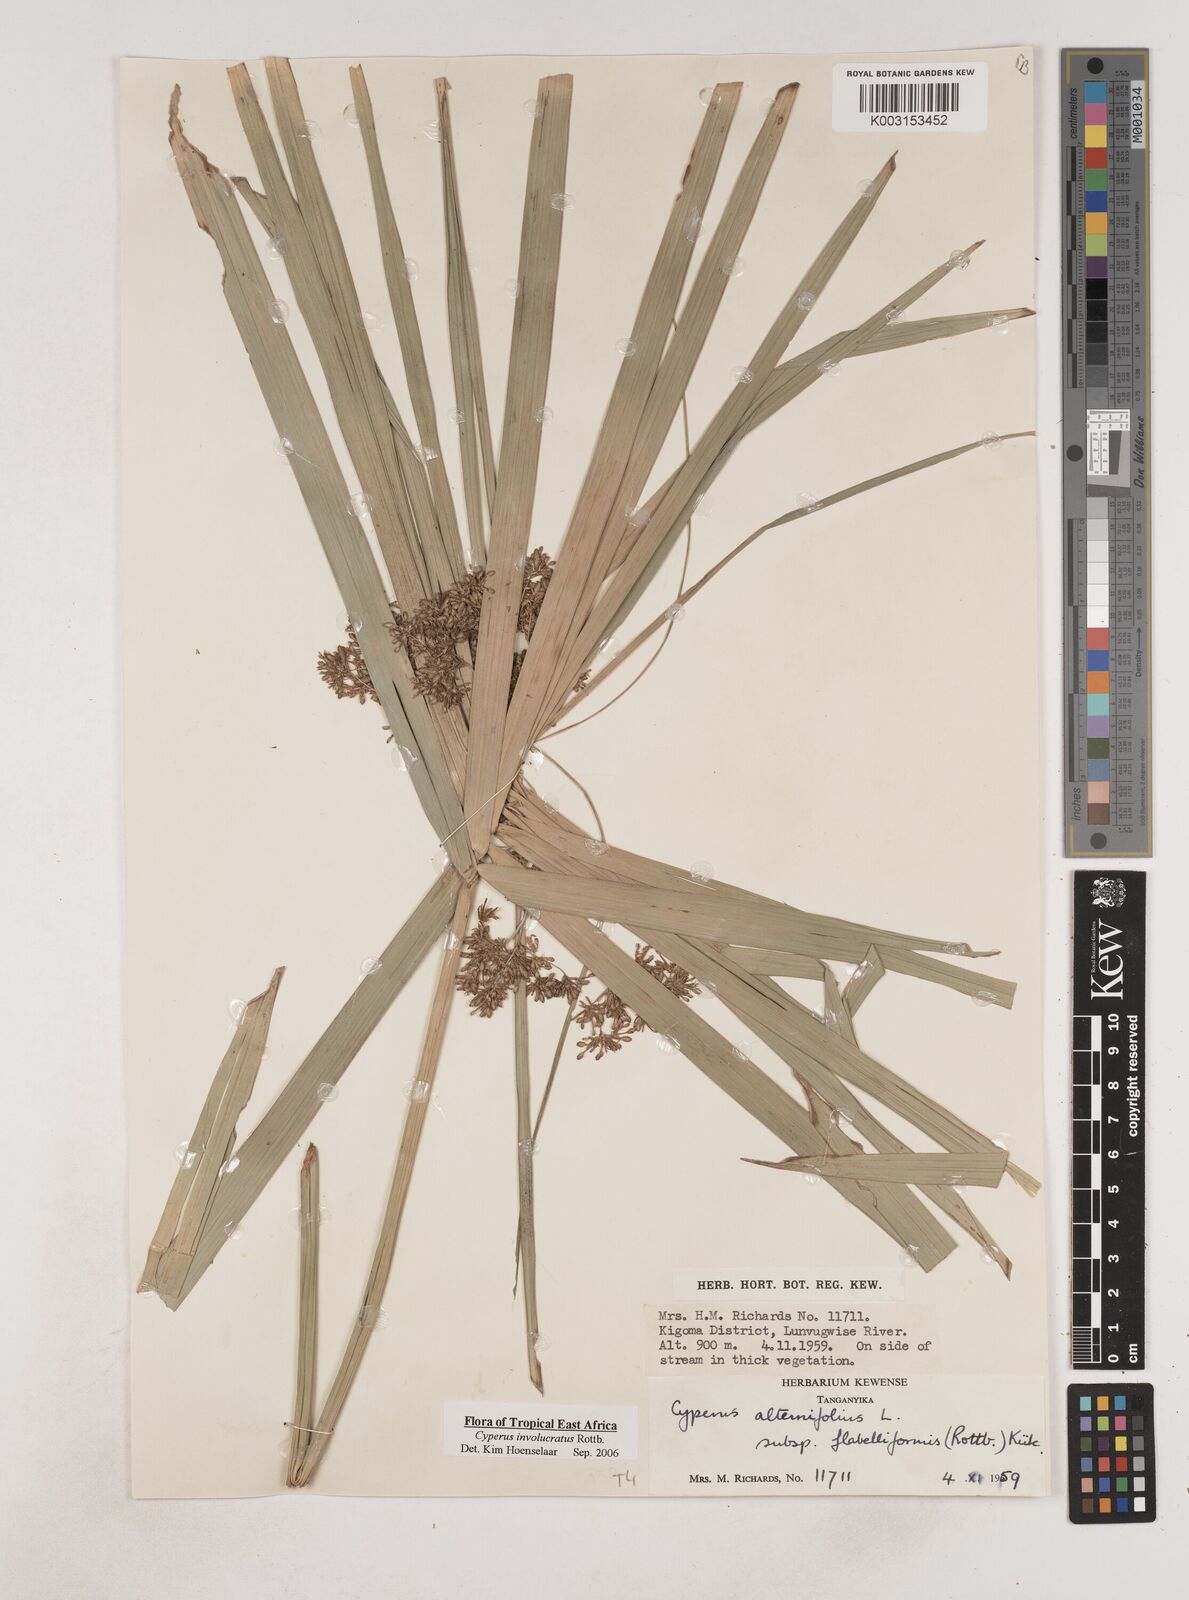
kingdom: Plantae
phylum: Tracheophyta
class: Liliopsida
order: Poales
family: Cyperaceae
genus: Cyperus
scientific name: Cyperus alternifolius
